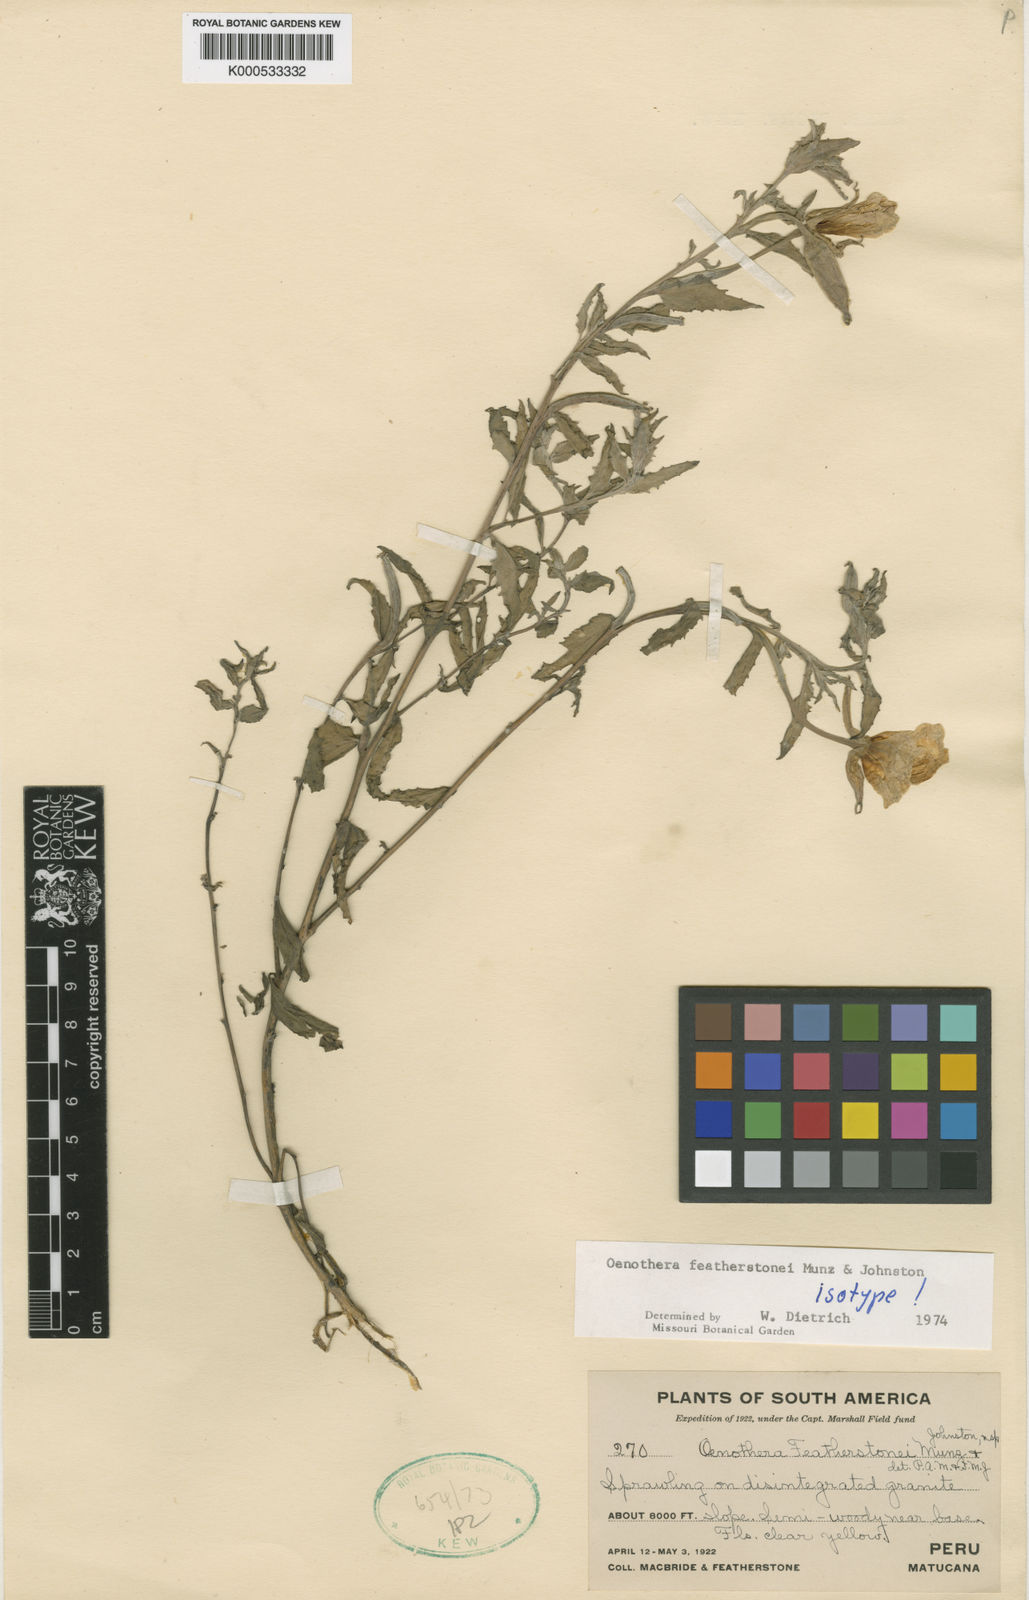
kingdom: Plantae
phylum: Tracheophyta
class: Magnoliopsida
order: Myrtales
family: Onagraceae
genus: Oenothera
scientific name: Oenothera featherstonei
